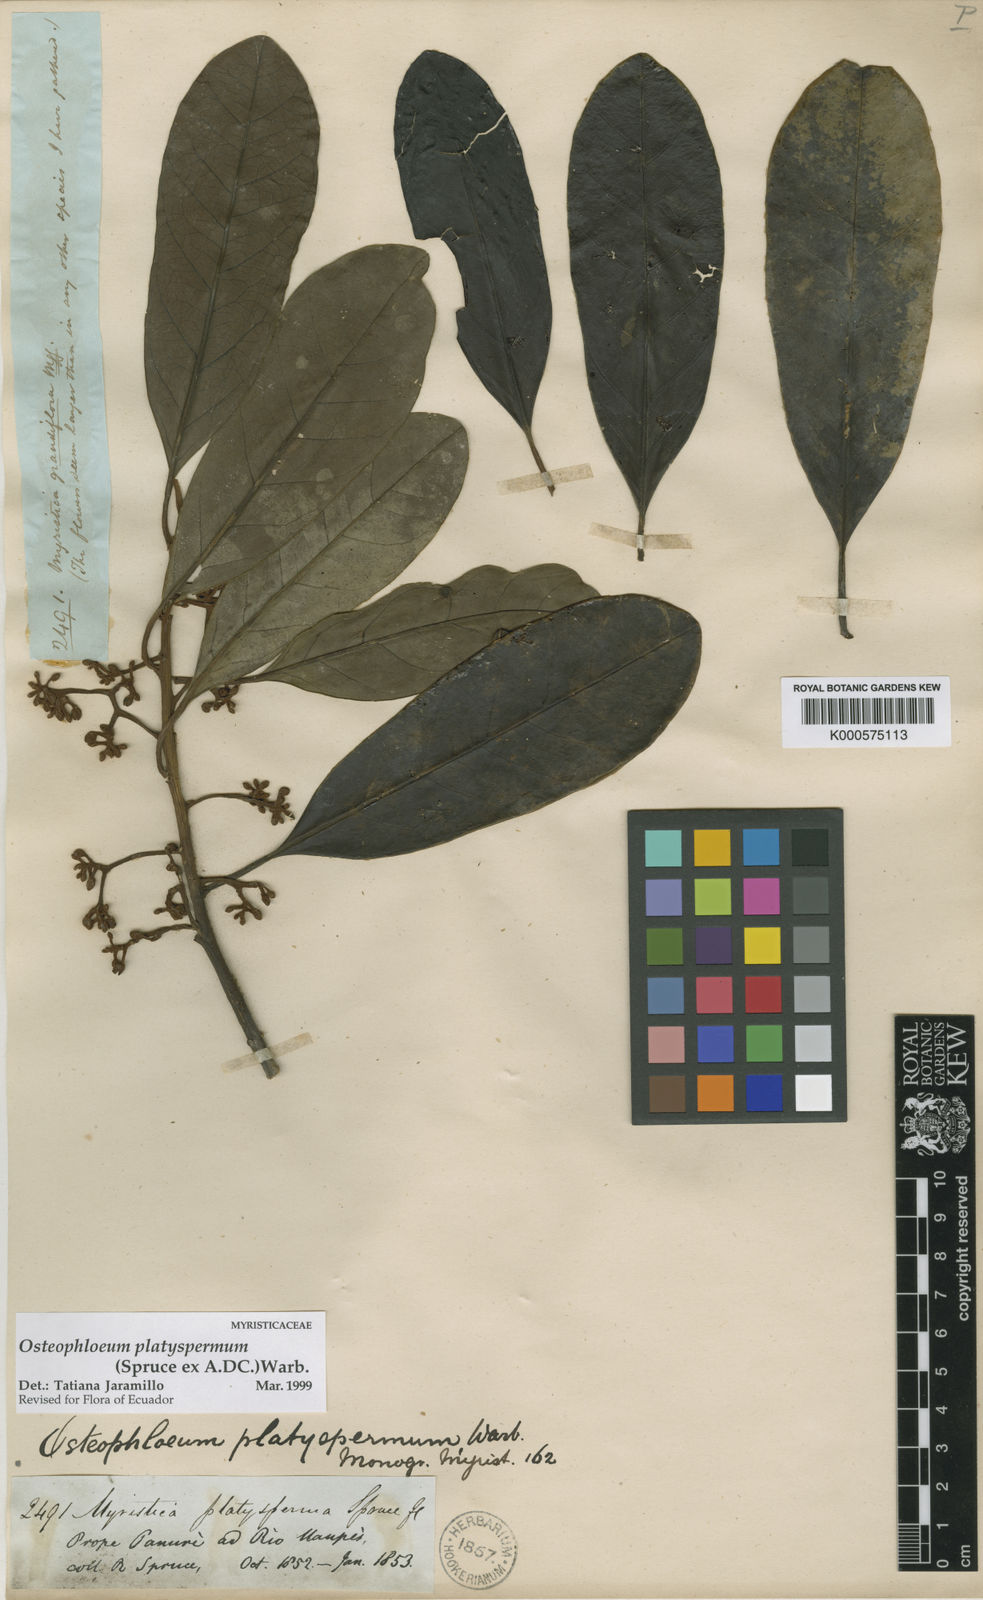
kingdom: Plantae
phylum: Tracheophyta
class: Magnoliopsida
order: Magnoliales
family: Myristicaceae
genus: Osteophloeum
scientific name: Osteophloeum platyspermum
